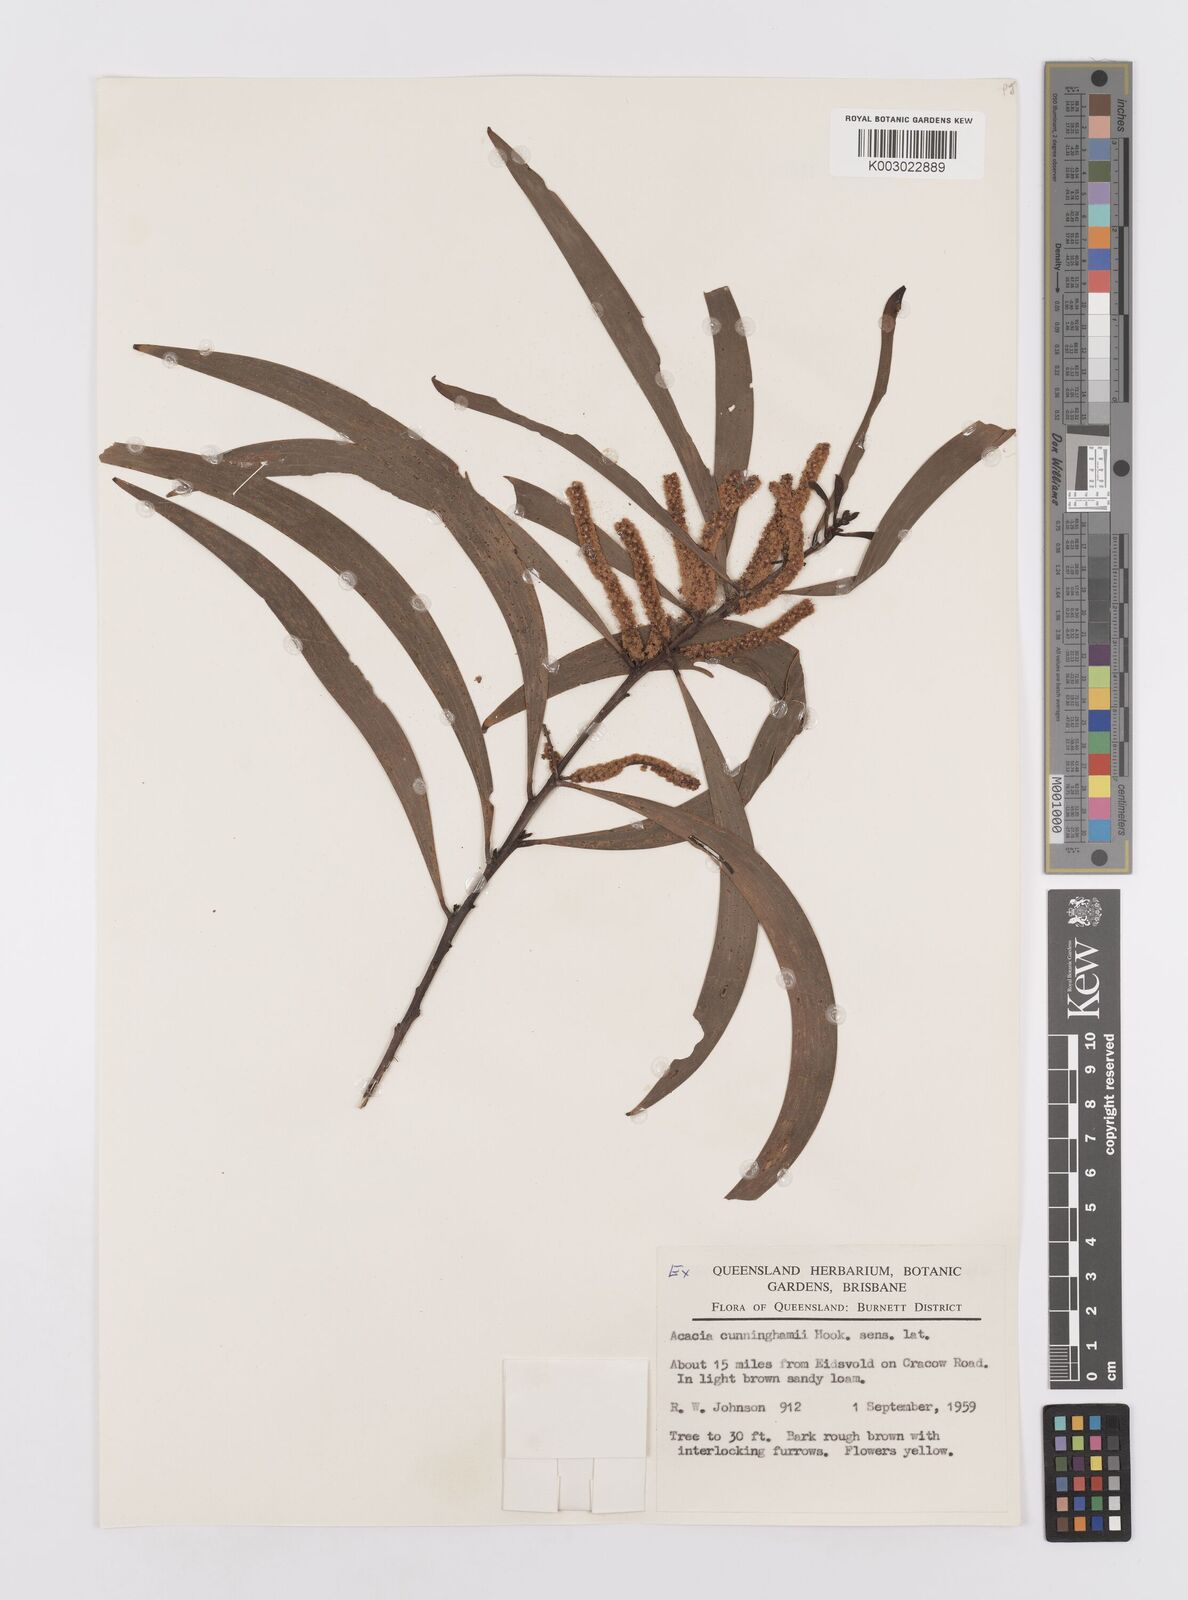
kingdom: Plantae
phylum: Tracheophyta
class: Magnoliopsida
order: Fabales
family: Fabaceae
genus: Acacia
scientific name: Acacia longispicata
